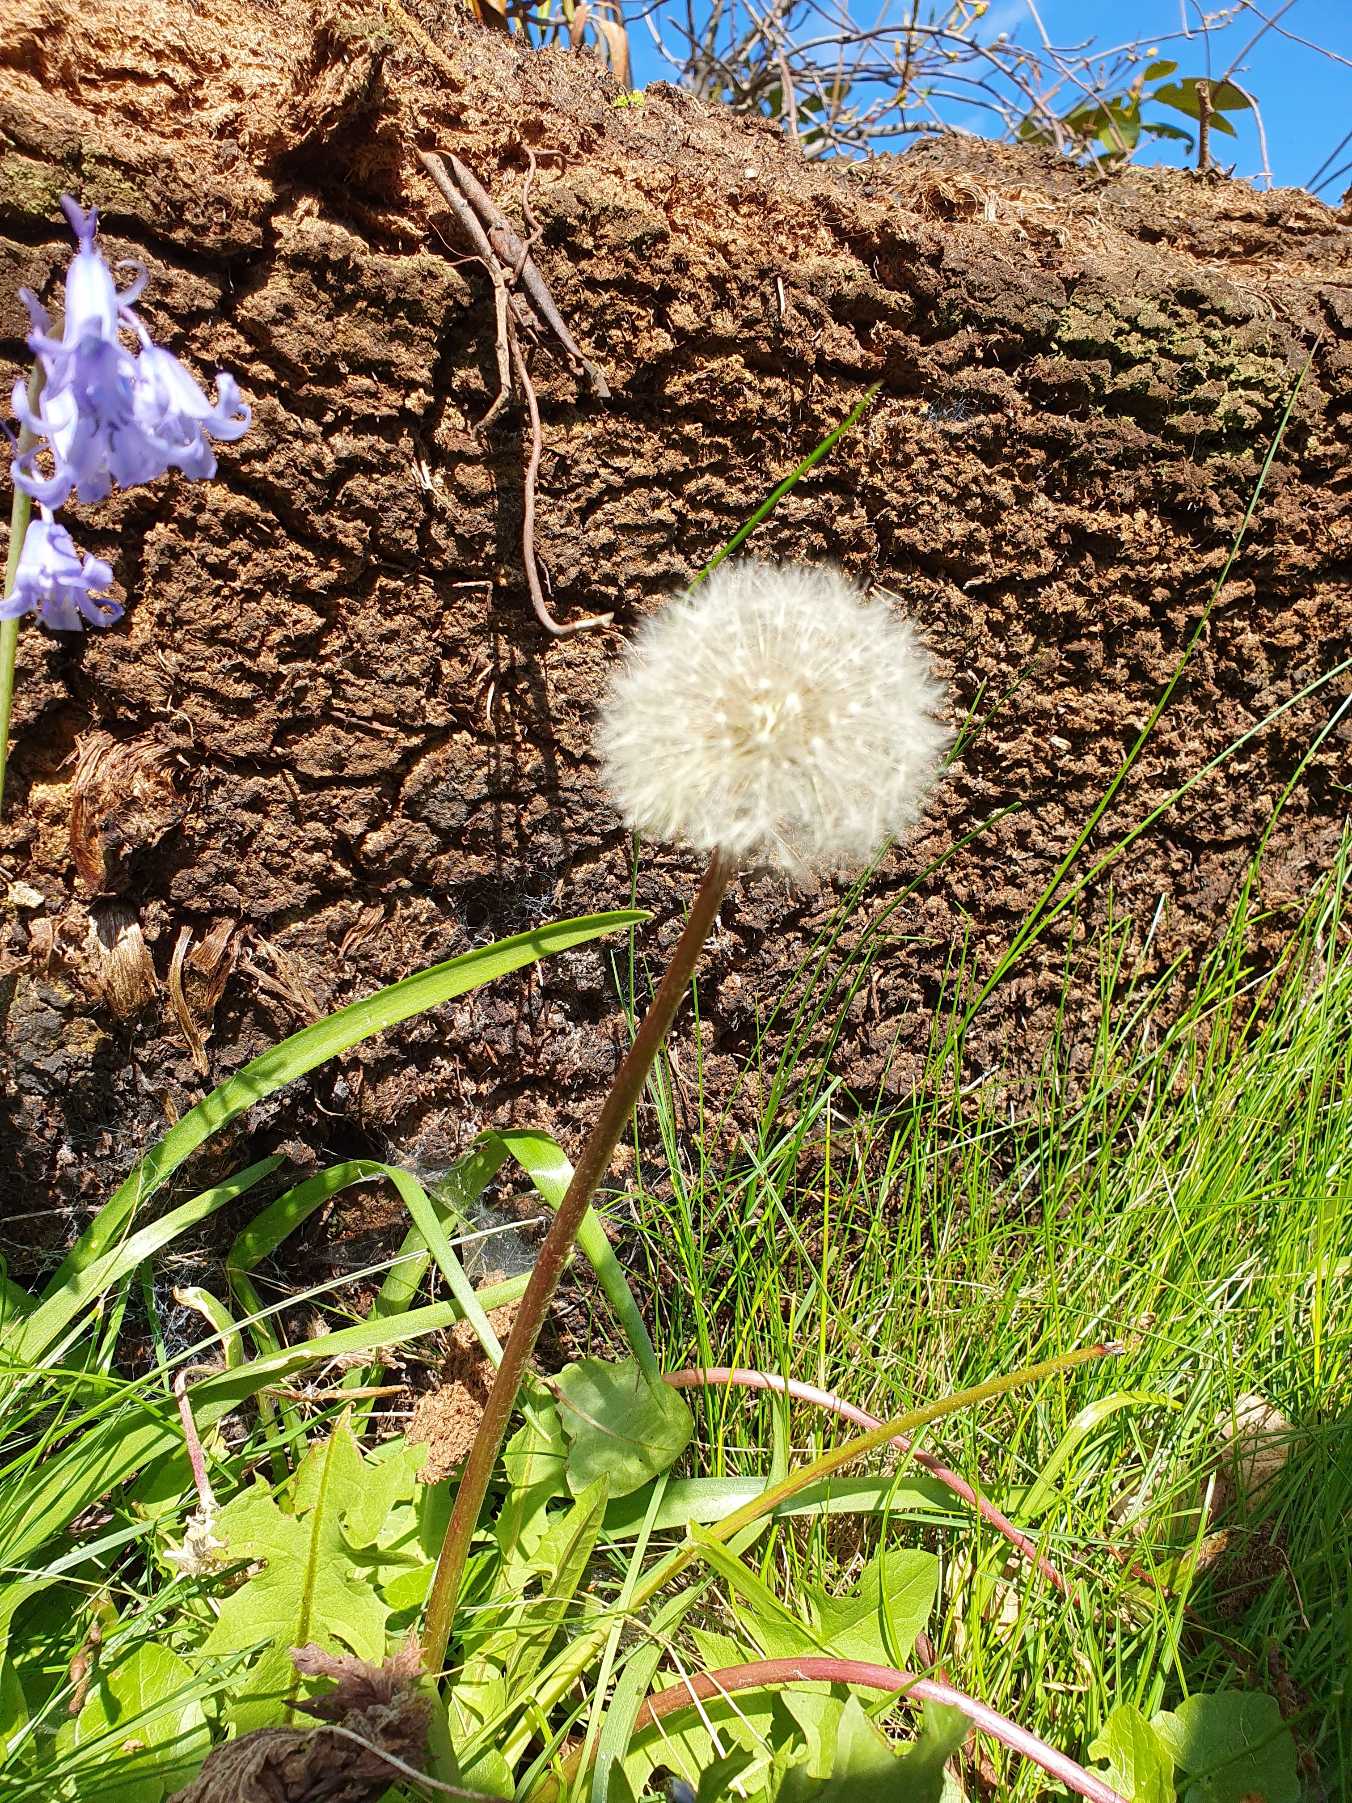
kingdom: Plantae
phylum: Tracheophyta
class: Magnoliopsida
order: Asterales
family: Asteraceae
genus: Taraxacum
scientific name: Taraxacum
